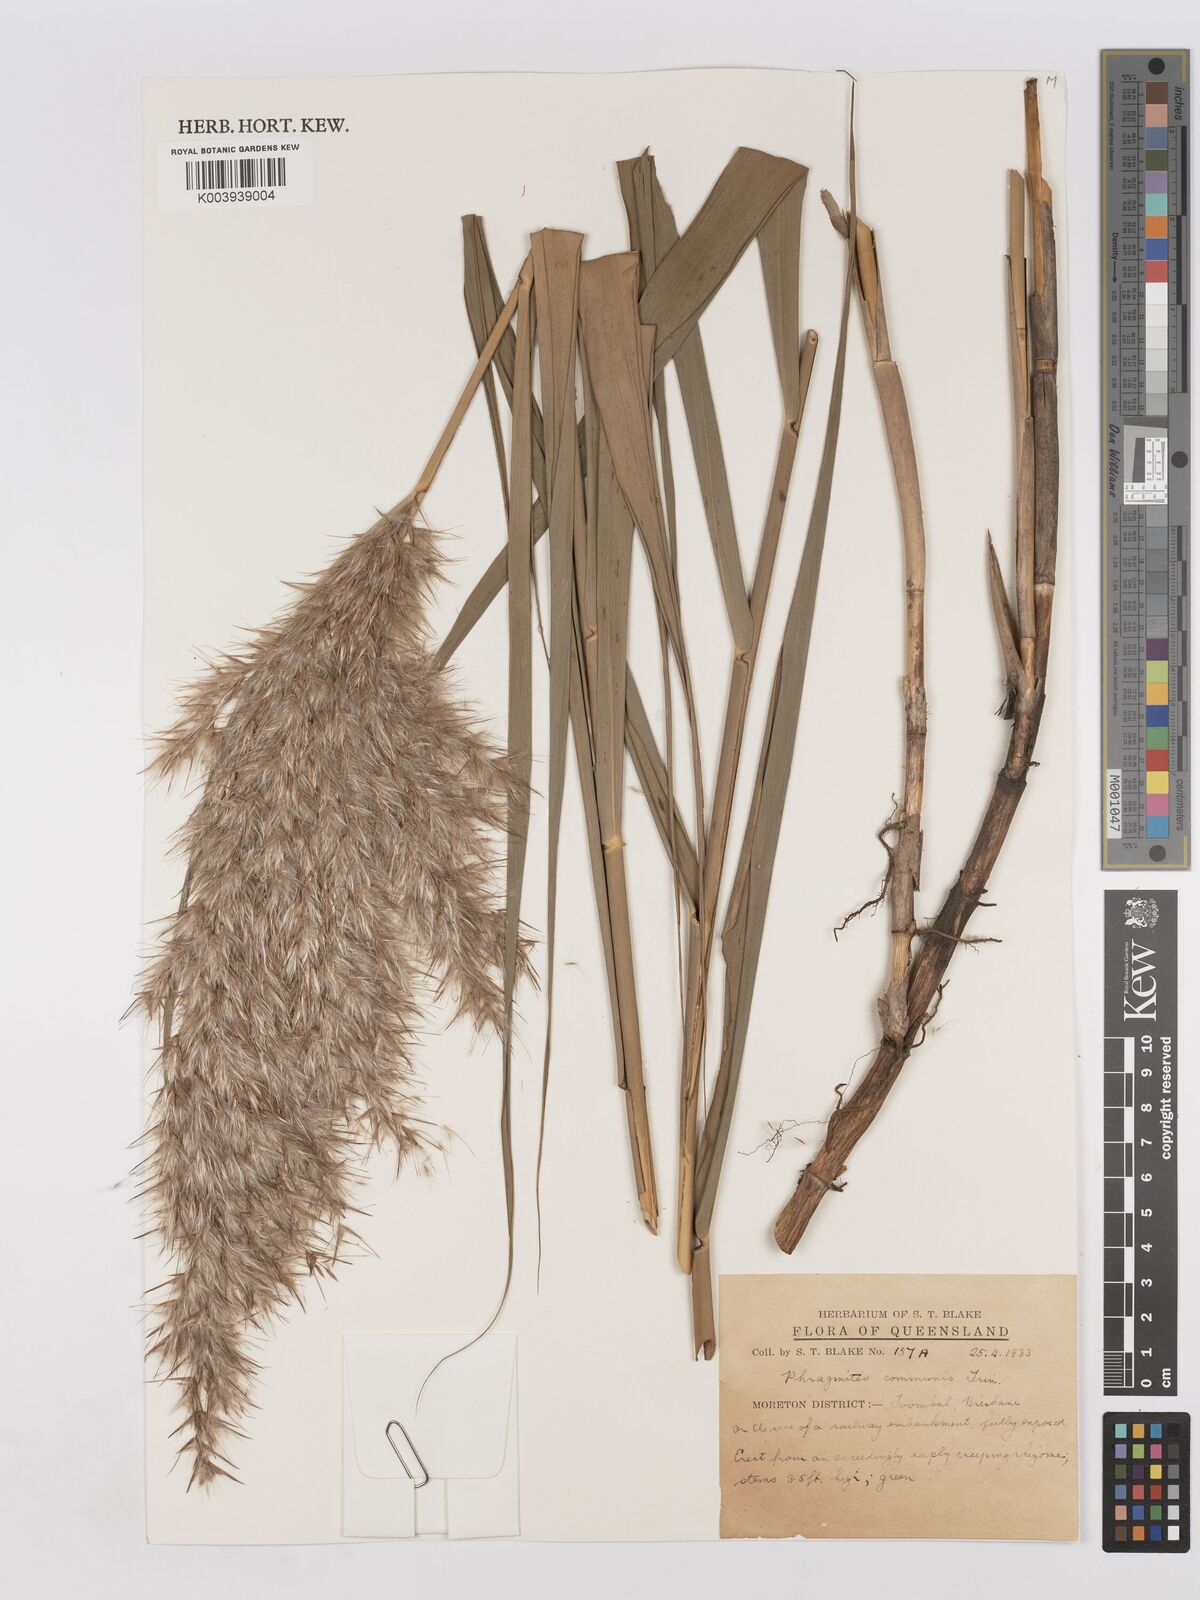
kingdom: Plantae
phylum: Tracheophyta
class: Liliopsida
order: Poales
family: Poaceae
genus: Phragmites
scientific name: Phragmites australis
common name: Common reed
